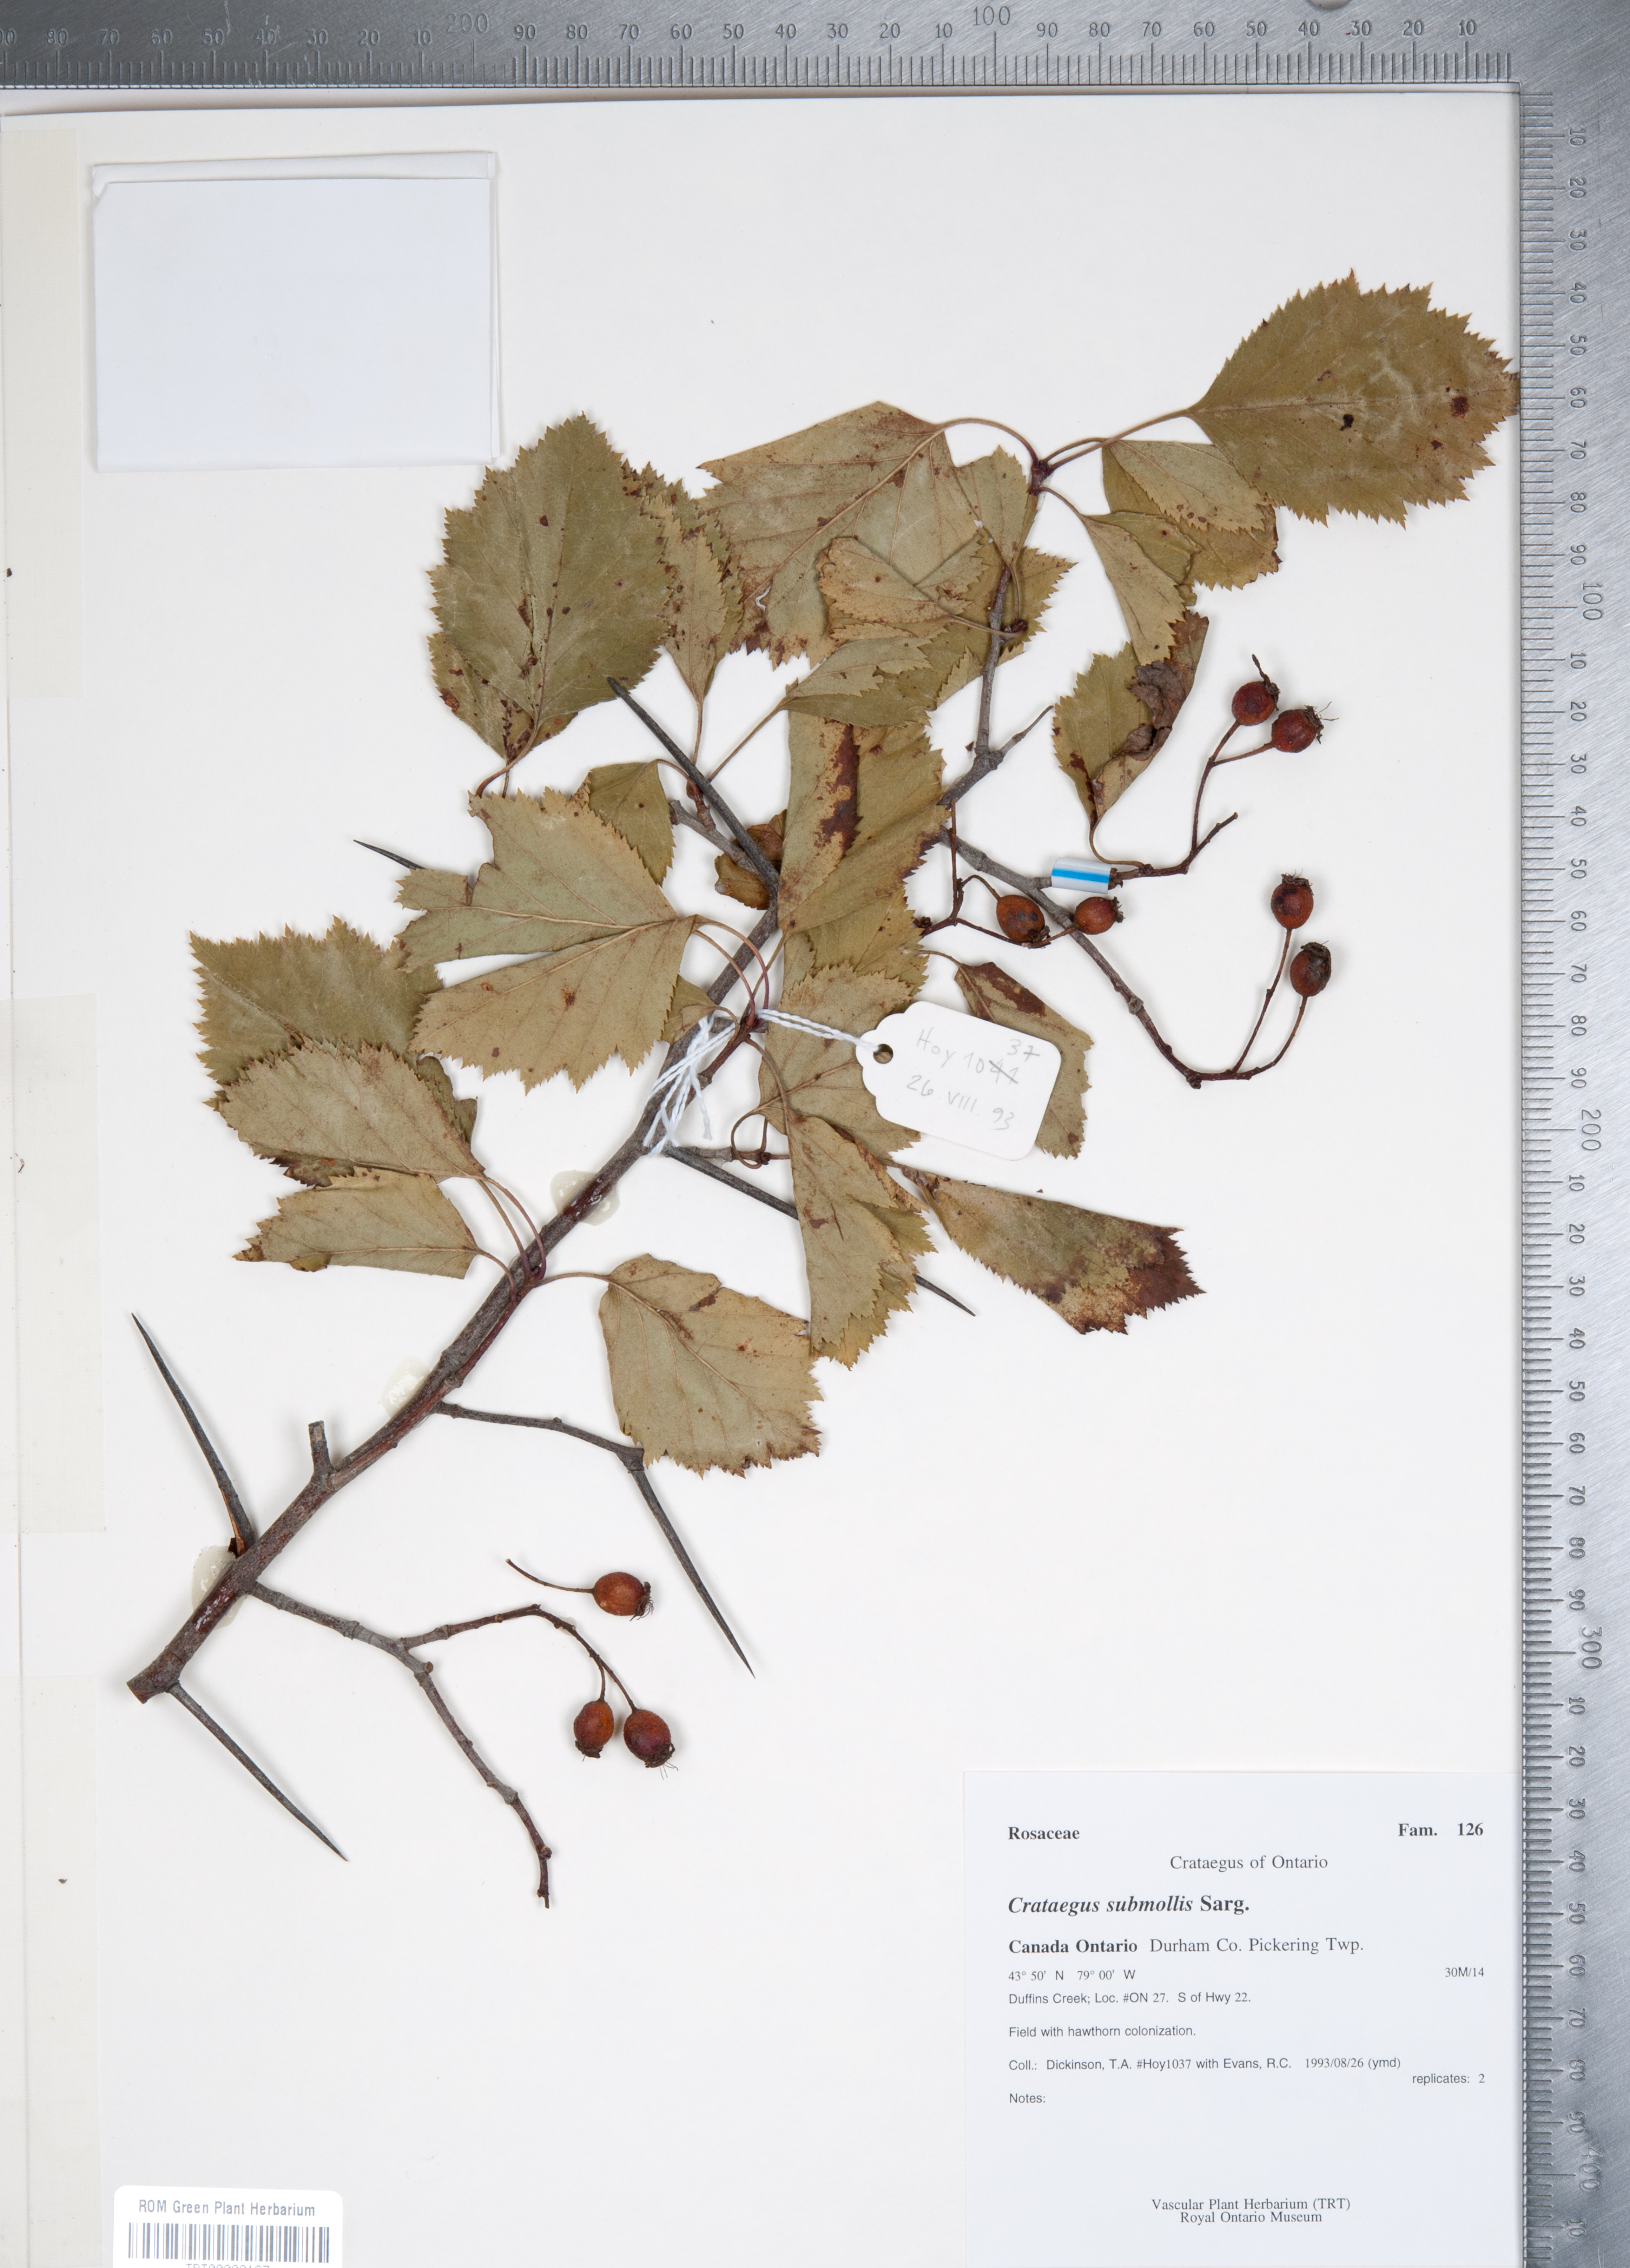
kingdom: Plantae
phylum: Tracheophyta
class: Magnoliopsida
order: Rosales
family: Rosaceae
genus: Crataegus
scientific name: Crataegus submollis
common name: Hairy cockspurthorn
